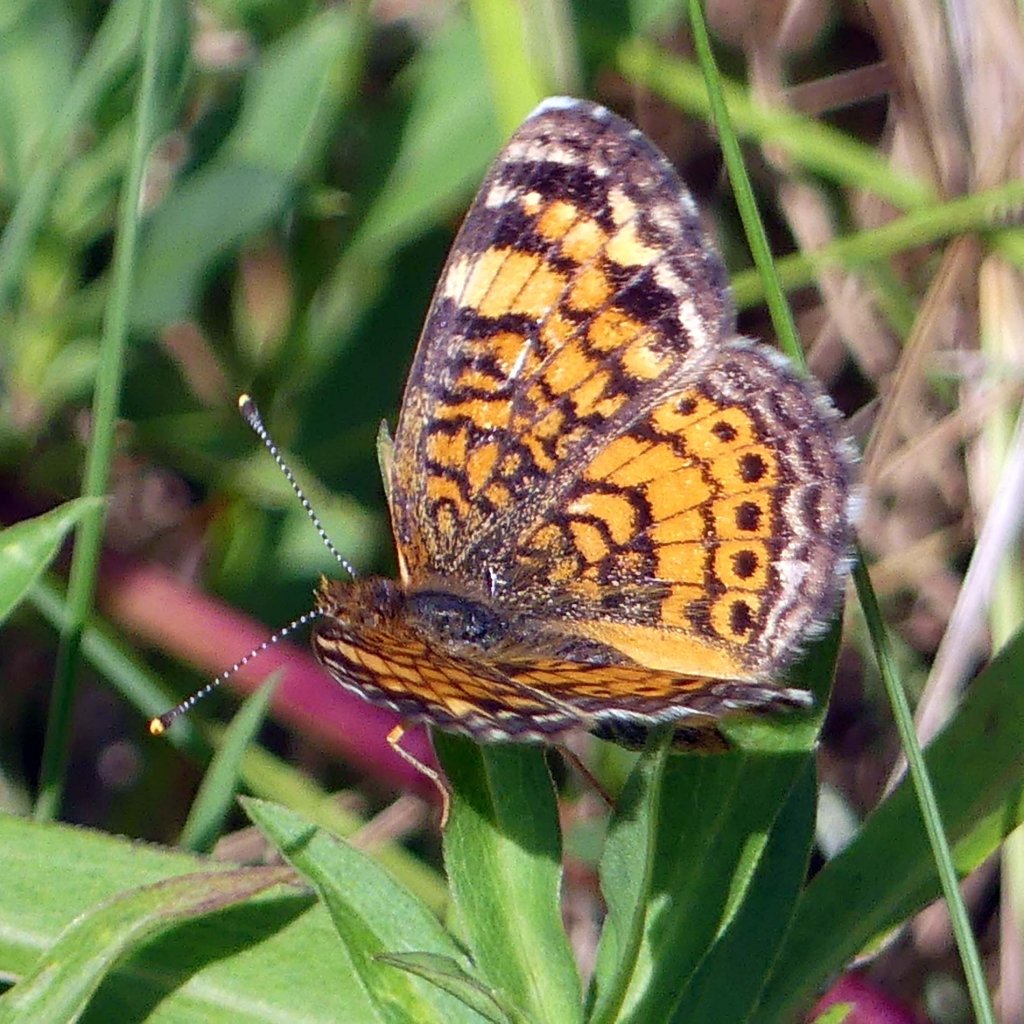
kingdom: Animalia
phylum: Arthropoda
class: Insecta
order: Lepidoptera
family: Nymphalidae
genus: Phyciodes
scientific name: Phyciodes tharos
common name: Northern Crescent
